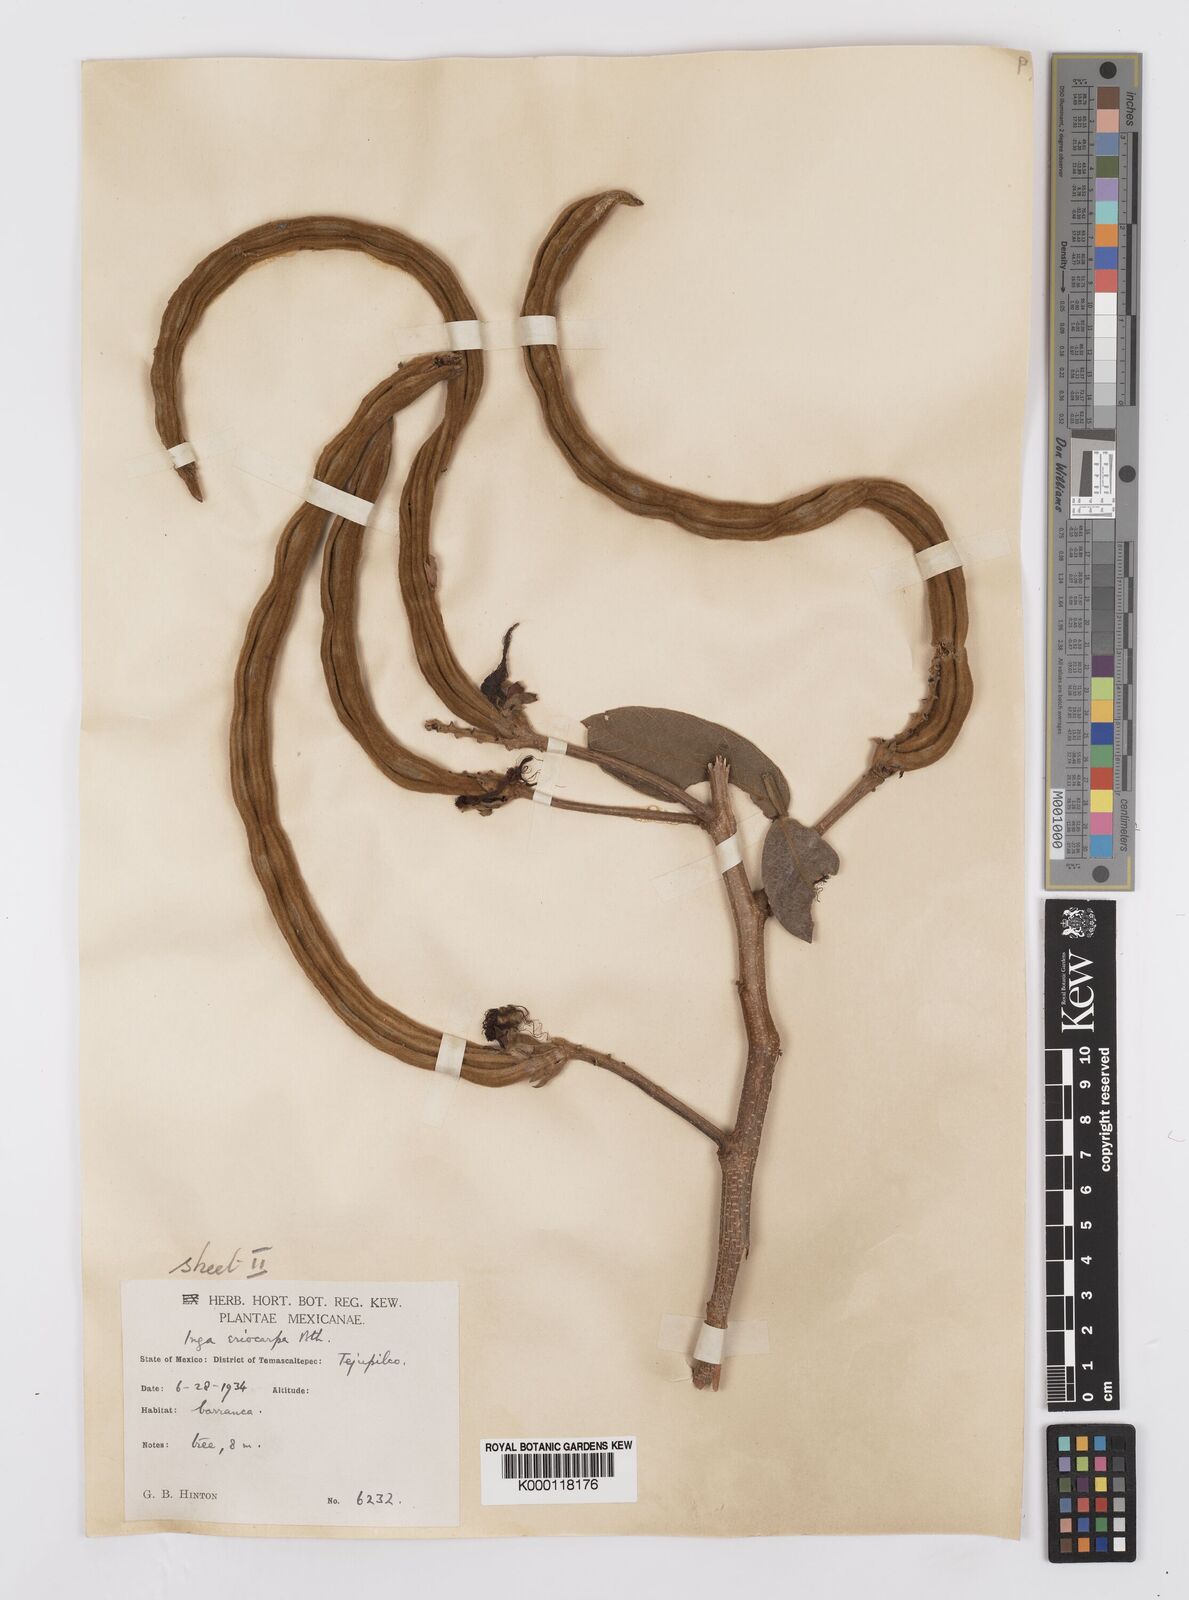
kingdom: Plantae
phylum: Tracheophyta
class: Magnoliopsida
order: Fabales
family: Fabaceae
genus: Inga
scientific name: Inga vera
